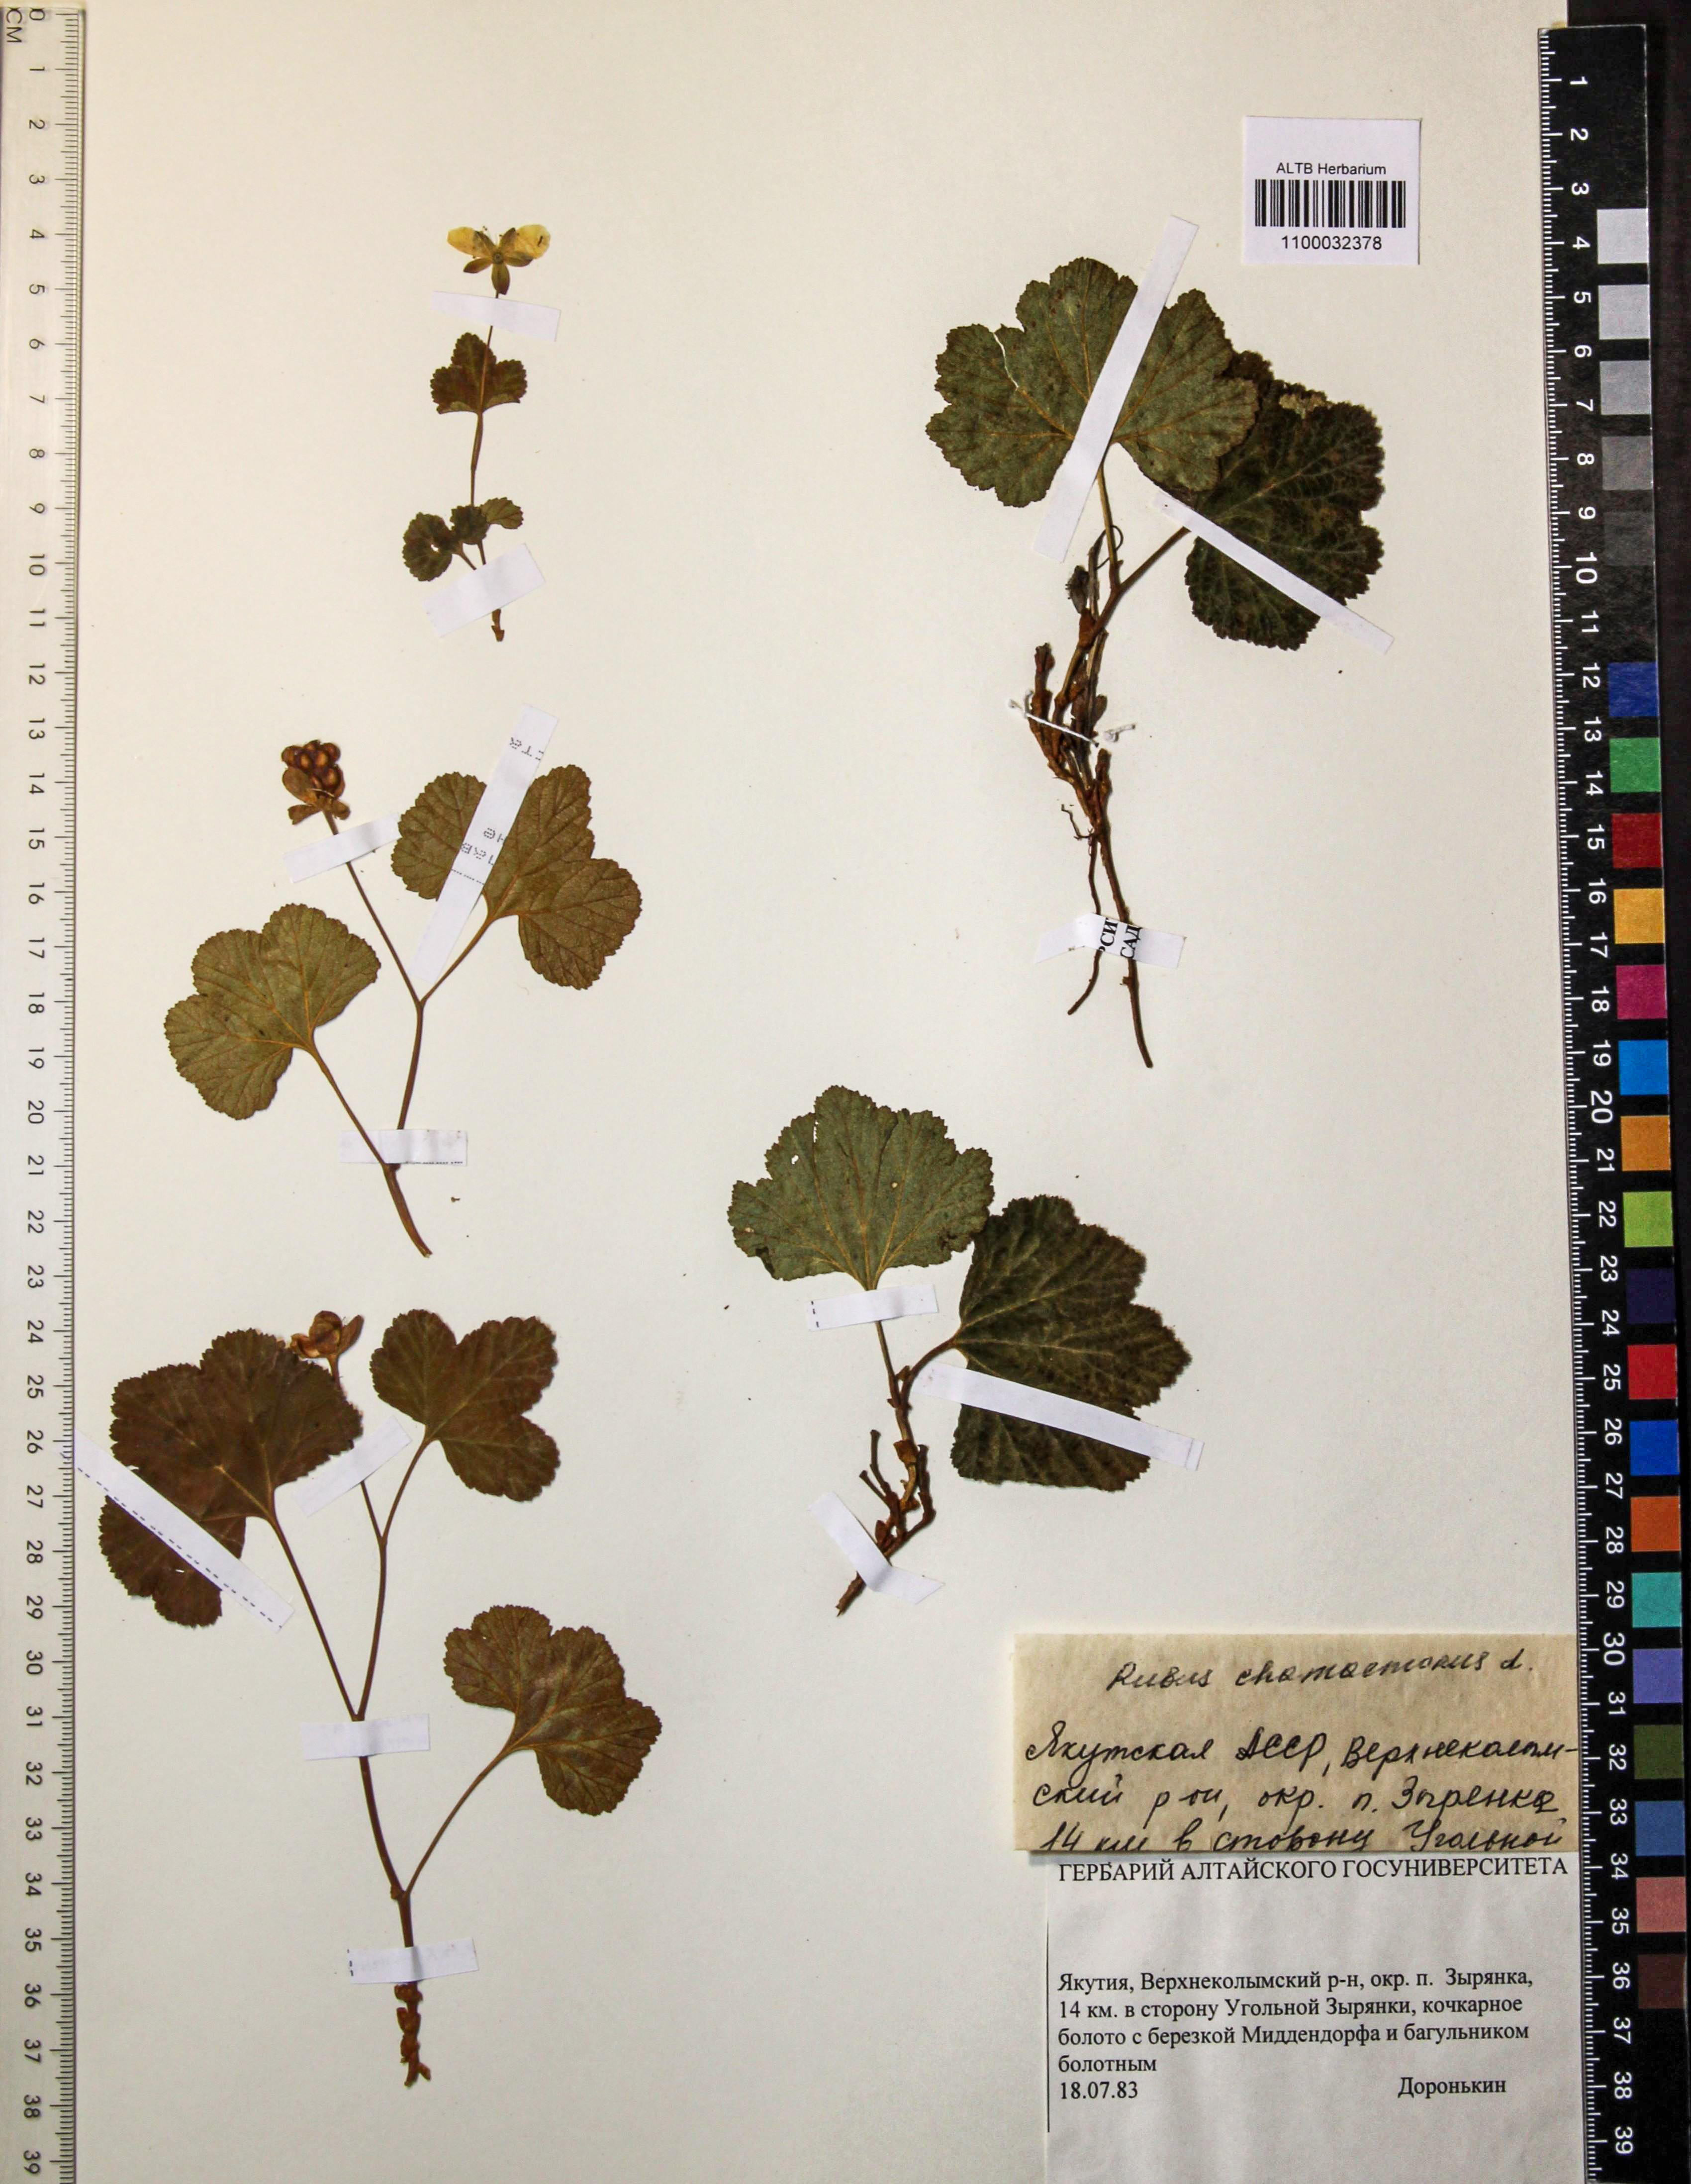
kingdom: Plantae
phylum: Tracheophyta
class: Magnoliopsida
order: Rosales
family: Rosaceae
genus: Rubus
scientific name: Rubus chamaemorus
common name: Cloudberry
